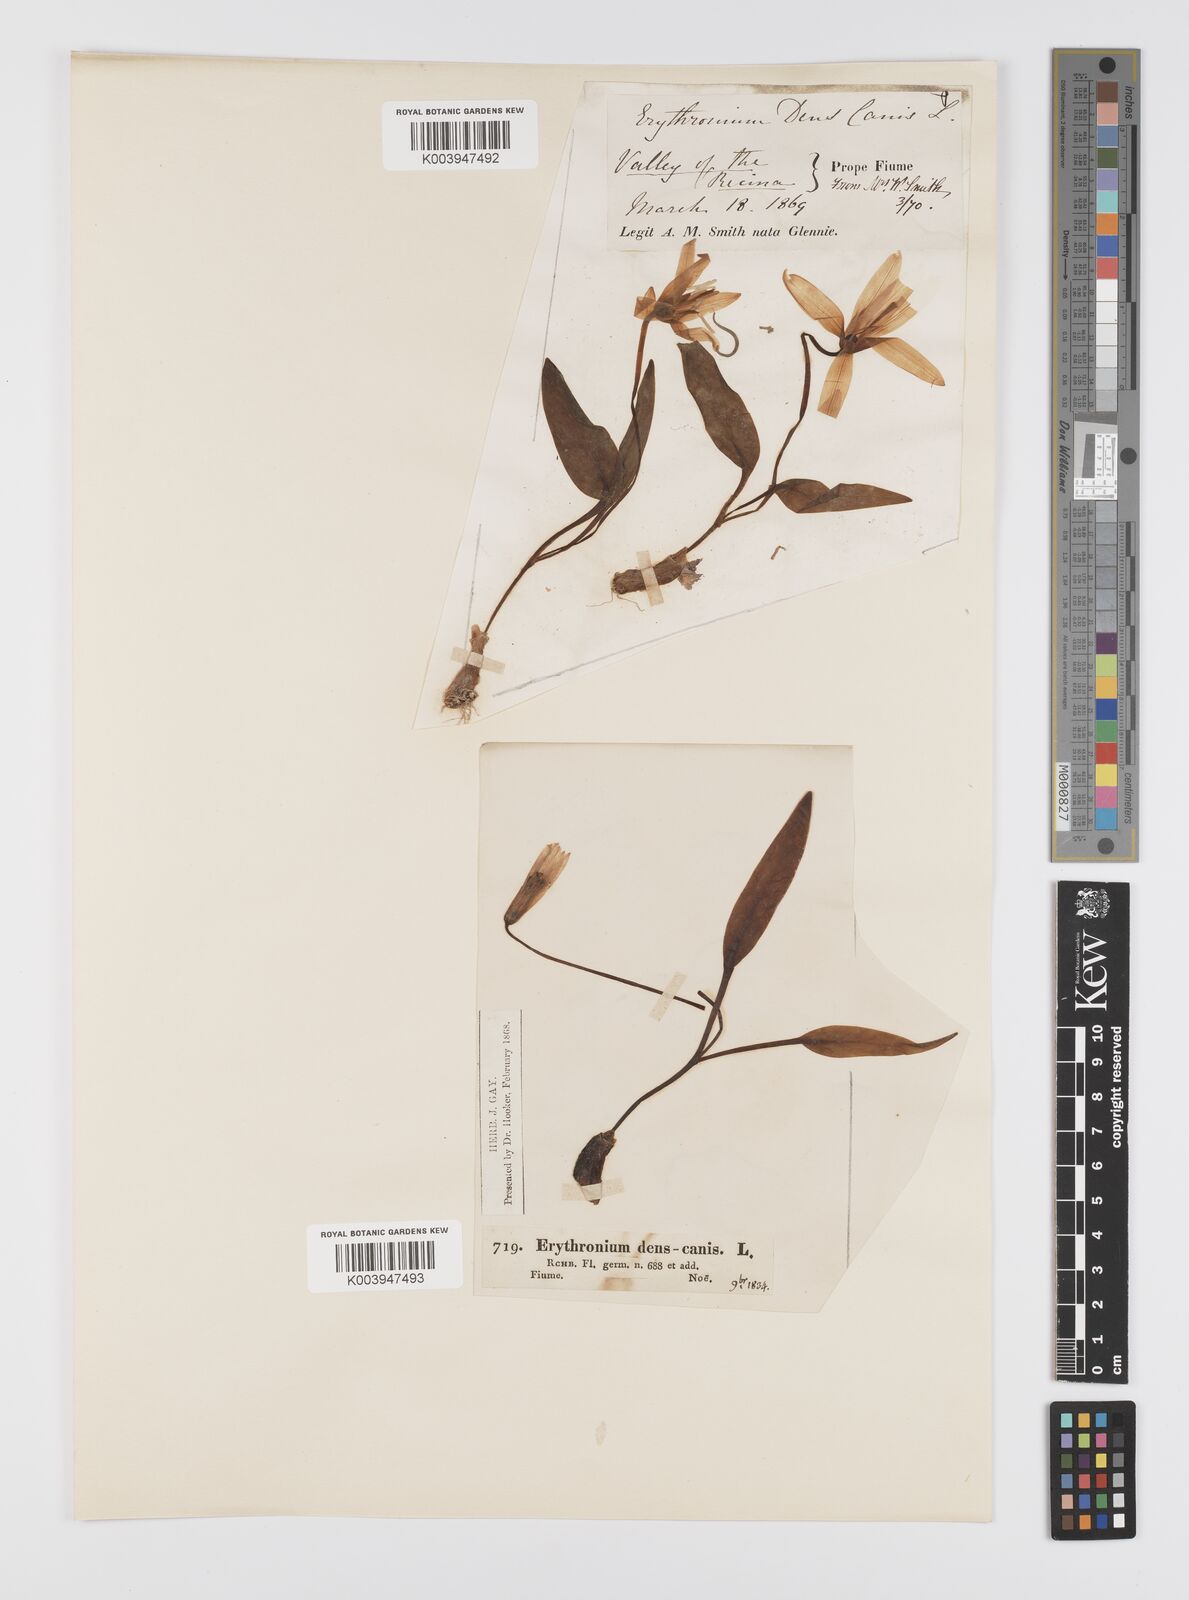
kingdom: Plantae
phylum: Tracheophyta
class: Liliopsida
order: Liliales
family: Liliaceae
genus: Erythronium
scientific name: Erythronium dens-canis
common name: Dog's-tooth-violet
